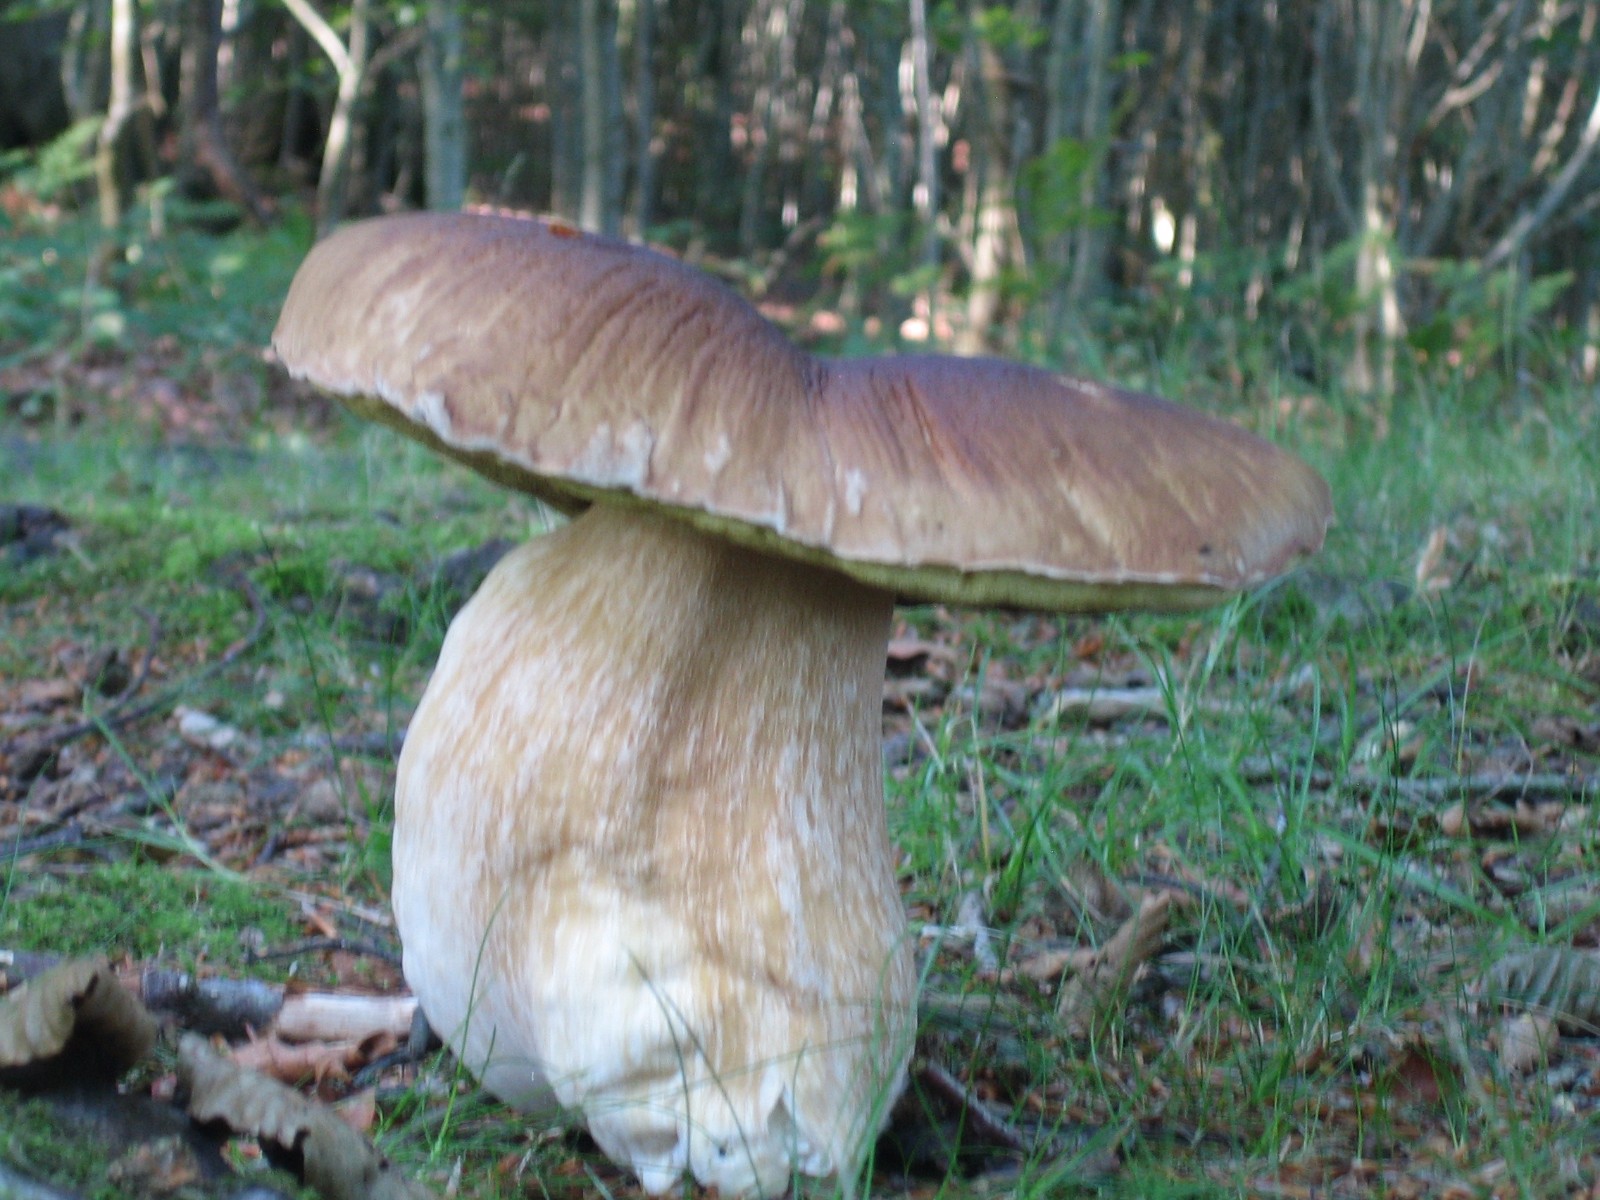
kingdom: Fungi
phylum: Basidiomycota
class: Agaricomycetes
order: Boletales
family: Boletaceae
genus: Boletus
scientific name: Boletus edulis
